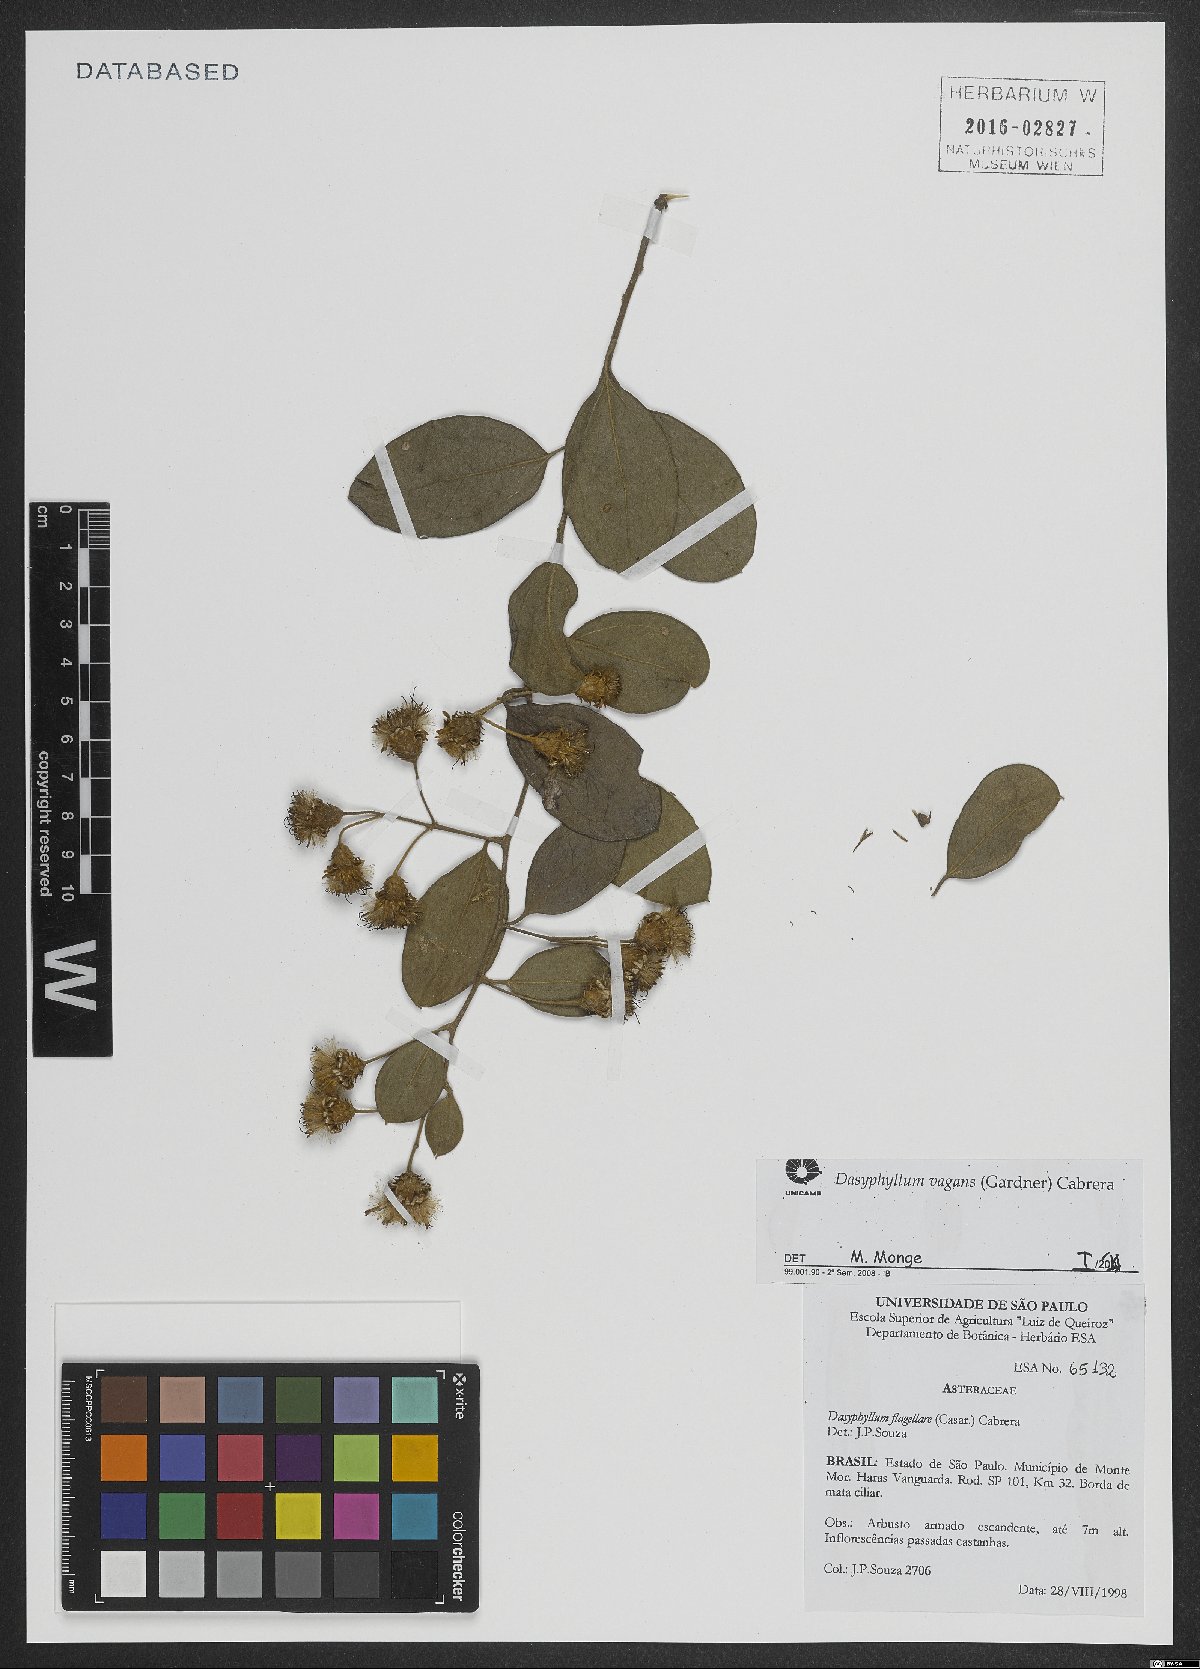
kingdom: Plantae
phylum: Tracheophyta
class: Magnoliopsida
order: Asterales
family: Asteraceae
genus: Dasyphyllum
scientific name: Dasyphyllum vagans
